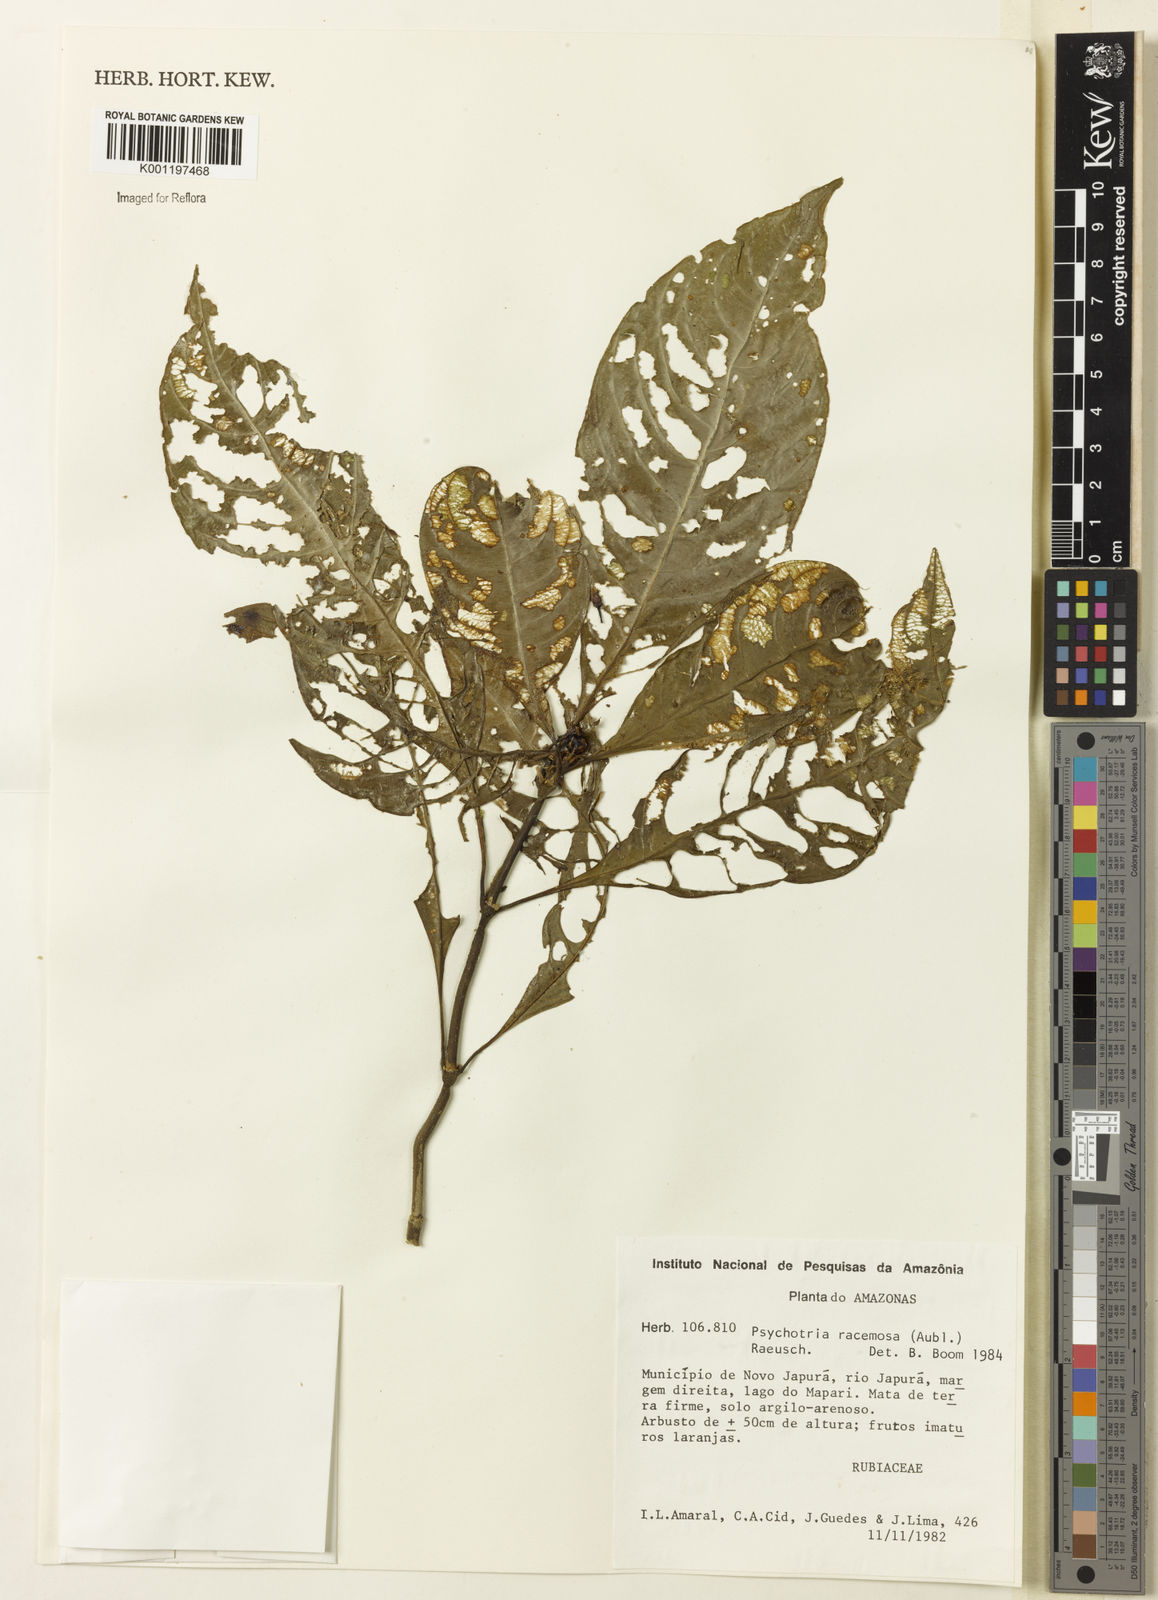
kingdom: Plantae
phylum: Tracheophyta
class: Magnoliopsida
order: Gentianales
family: Rubiaceae
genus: Palicourea
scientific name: Palicourea racemosa
